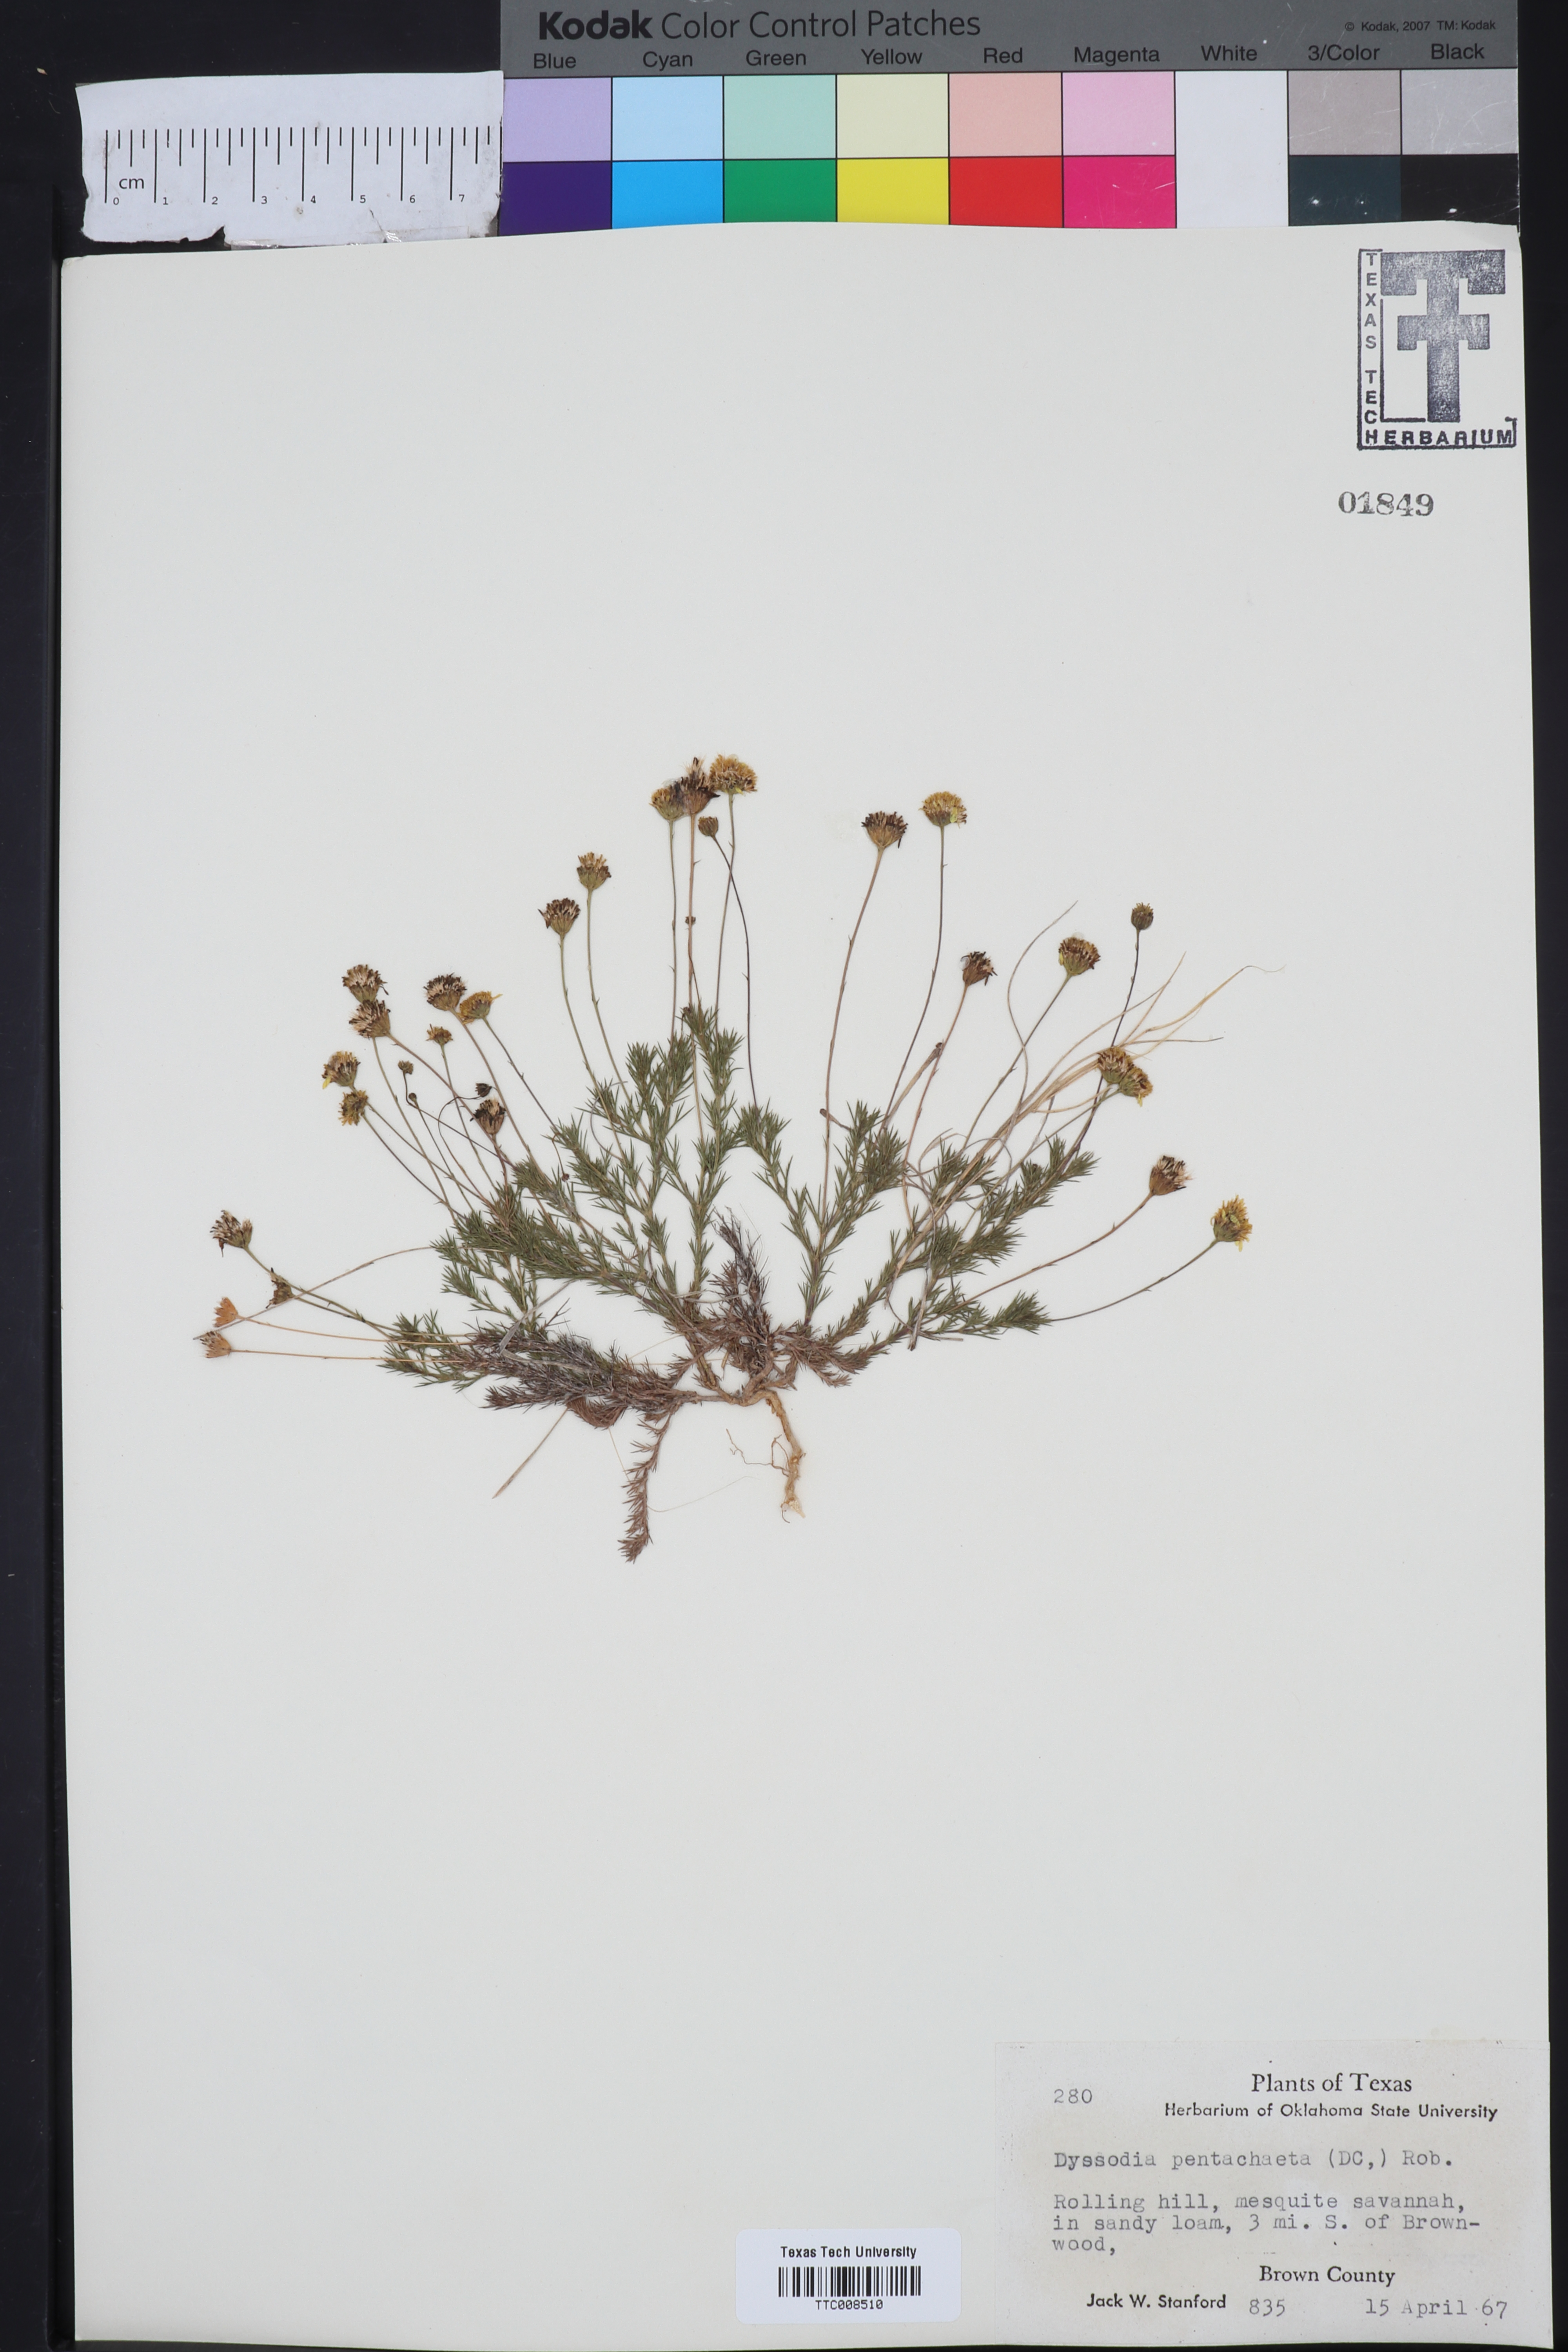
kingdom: Plantae
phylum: Tracheophyta
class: Magnoliopsida
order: Asterales
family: Asteraceae
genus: Thymophylla
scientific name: Thymophylla pentachaeta
